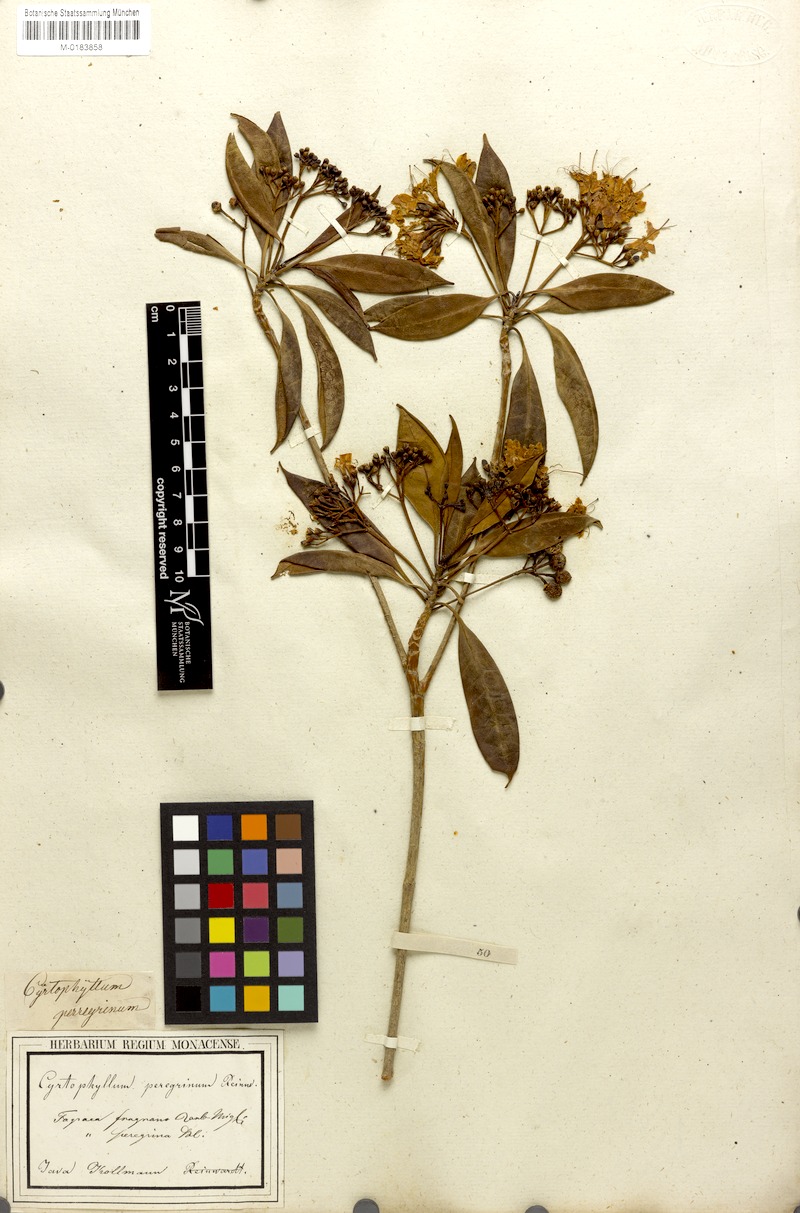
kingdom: Plantae
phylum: Tracheophyta
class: Magnoliopsida
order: Gentianales
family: Gentianaceae
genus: Cyrtophyllum
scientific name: Cyrtophyllum fragrans
